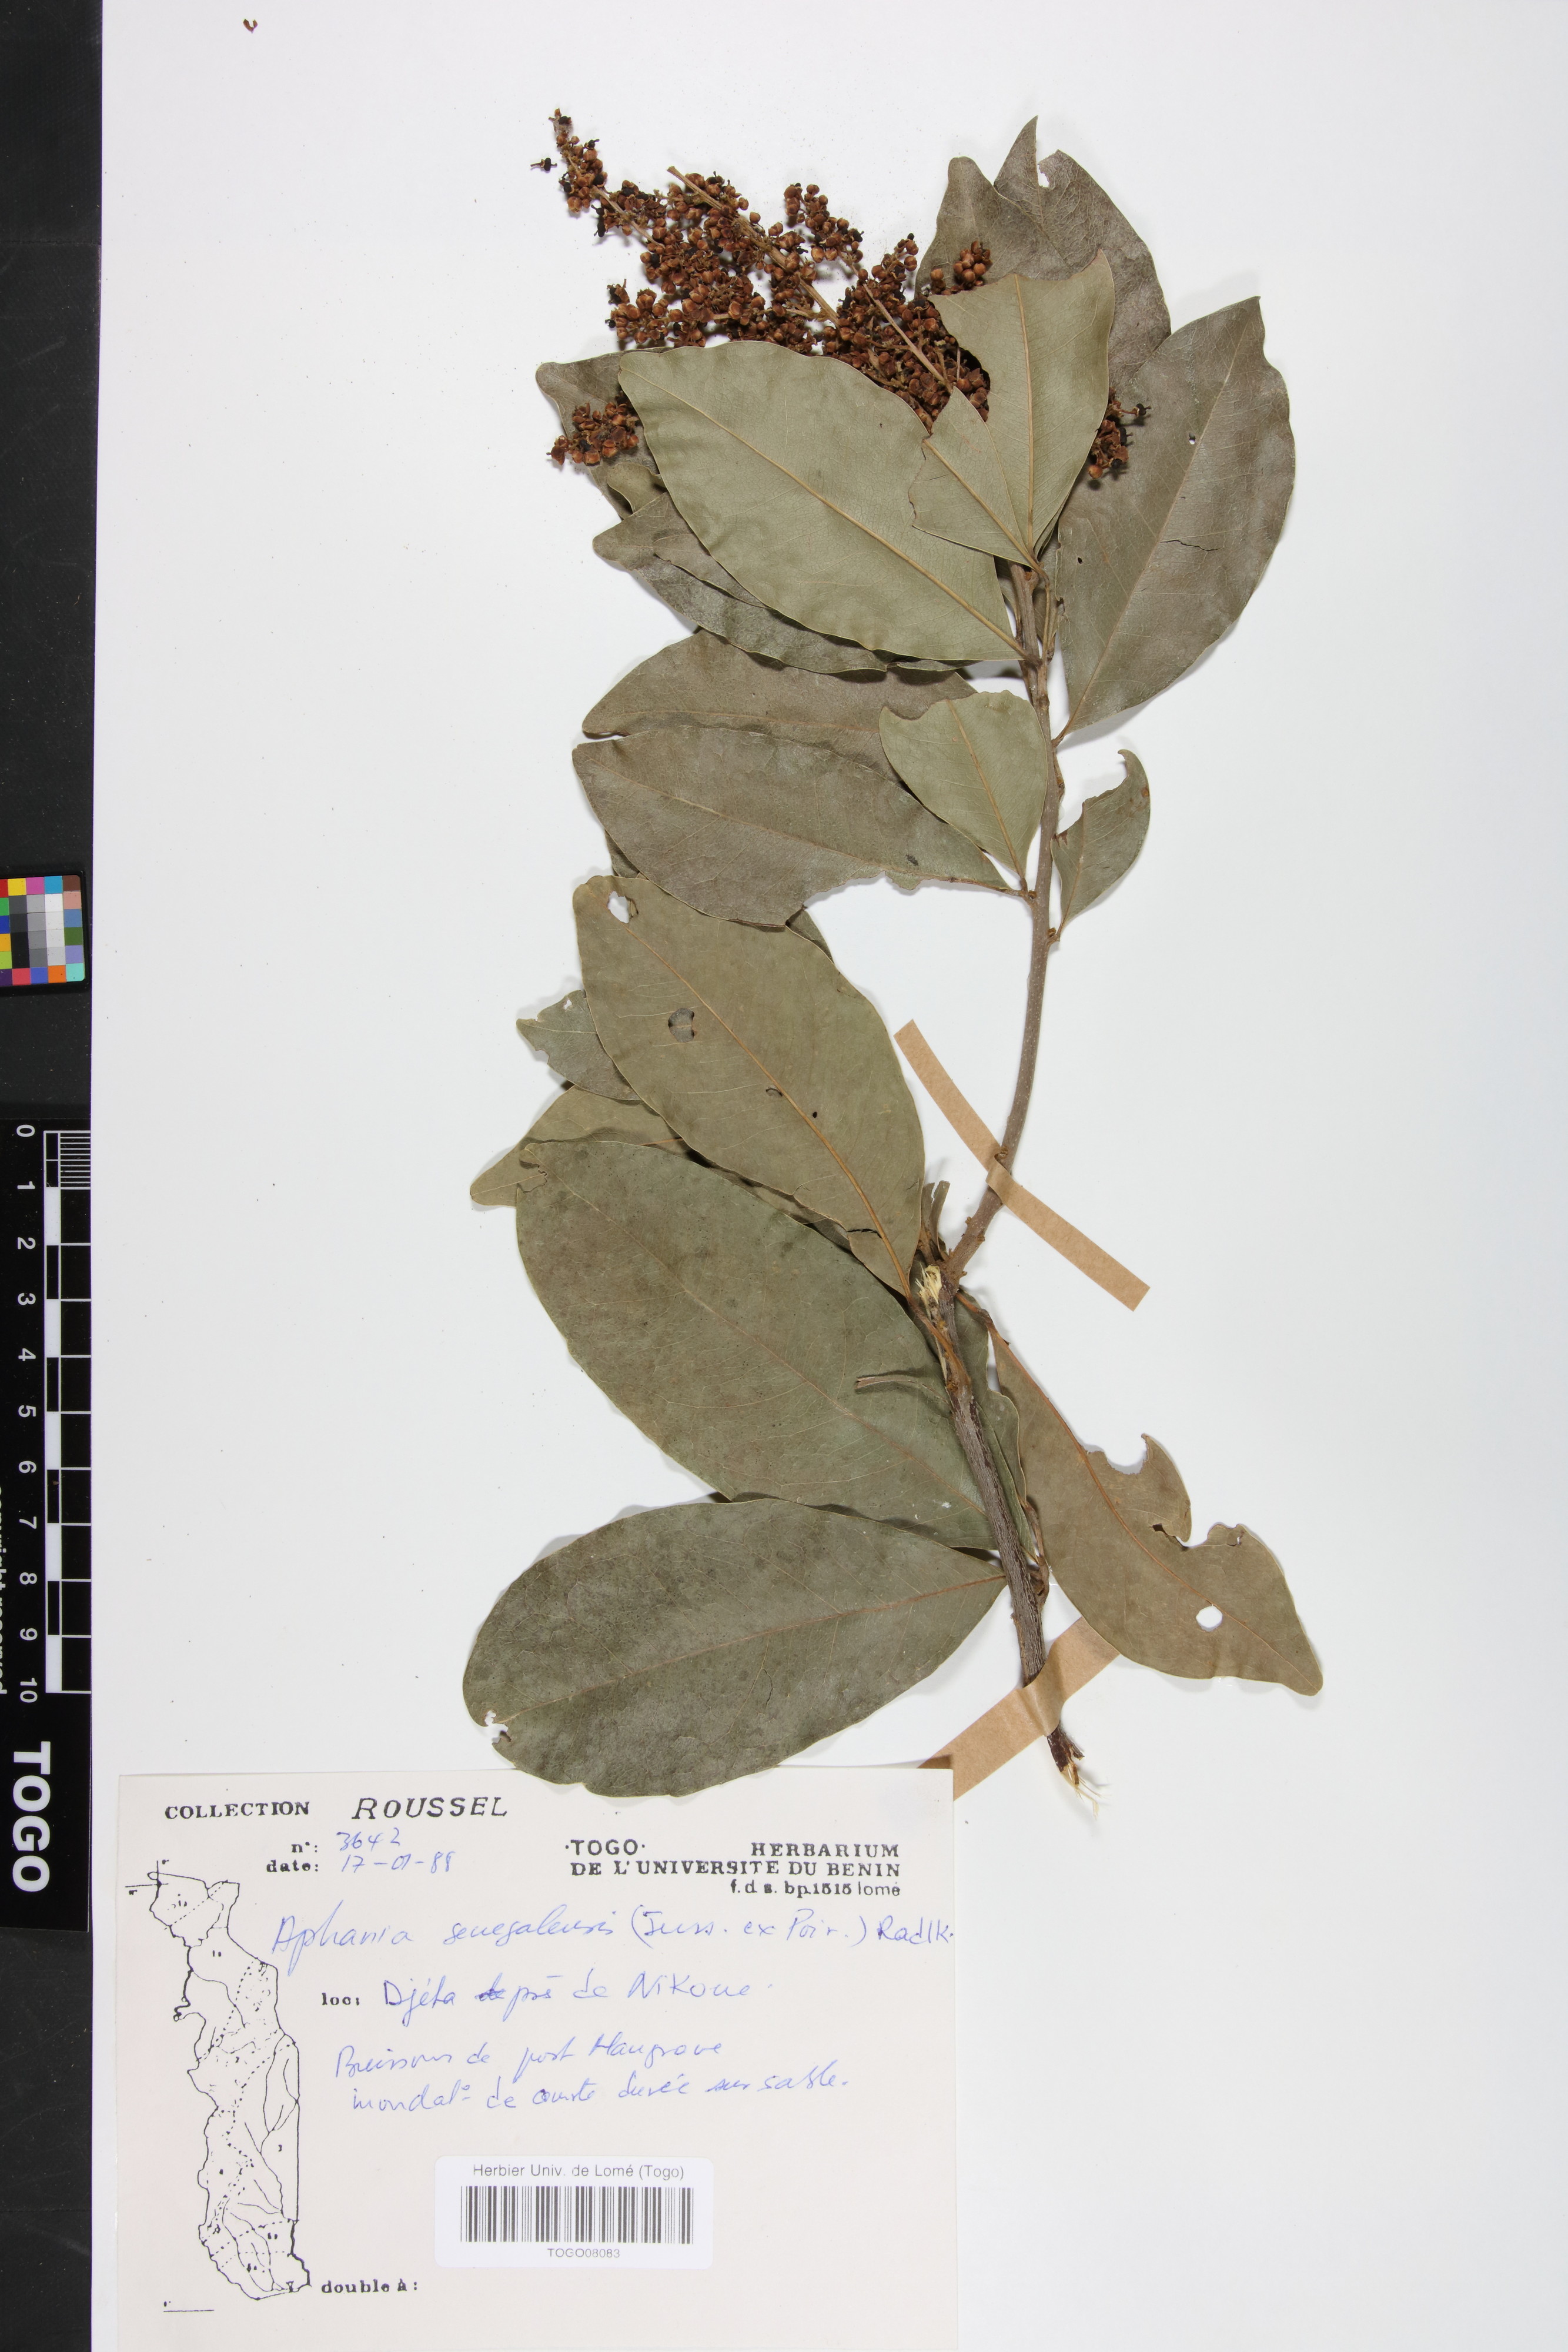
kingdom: Plantae
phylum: Tracheophyta
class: Magnoliopsida
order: Sapindales
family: Sapindaceae
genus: Lepisanthes
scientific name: Lepisanthes senegalensis
